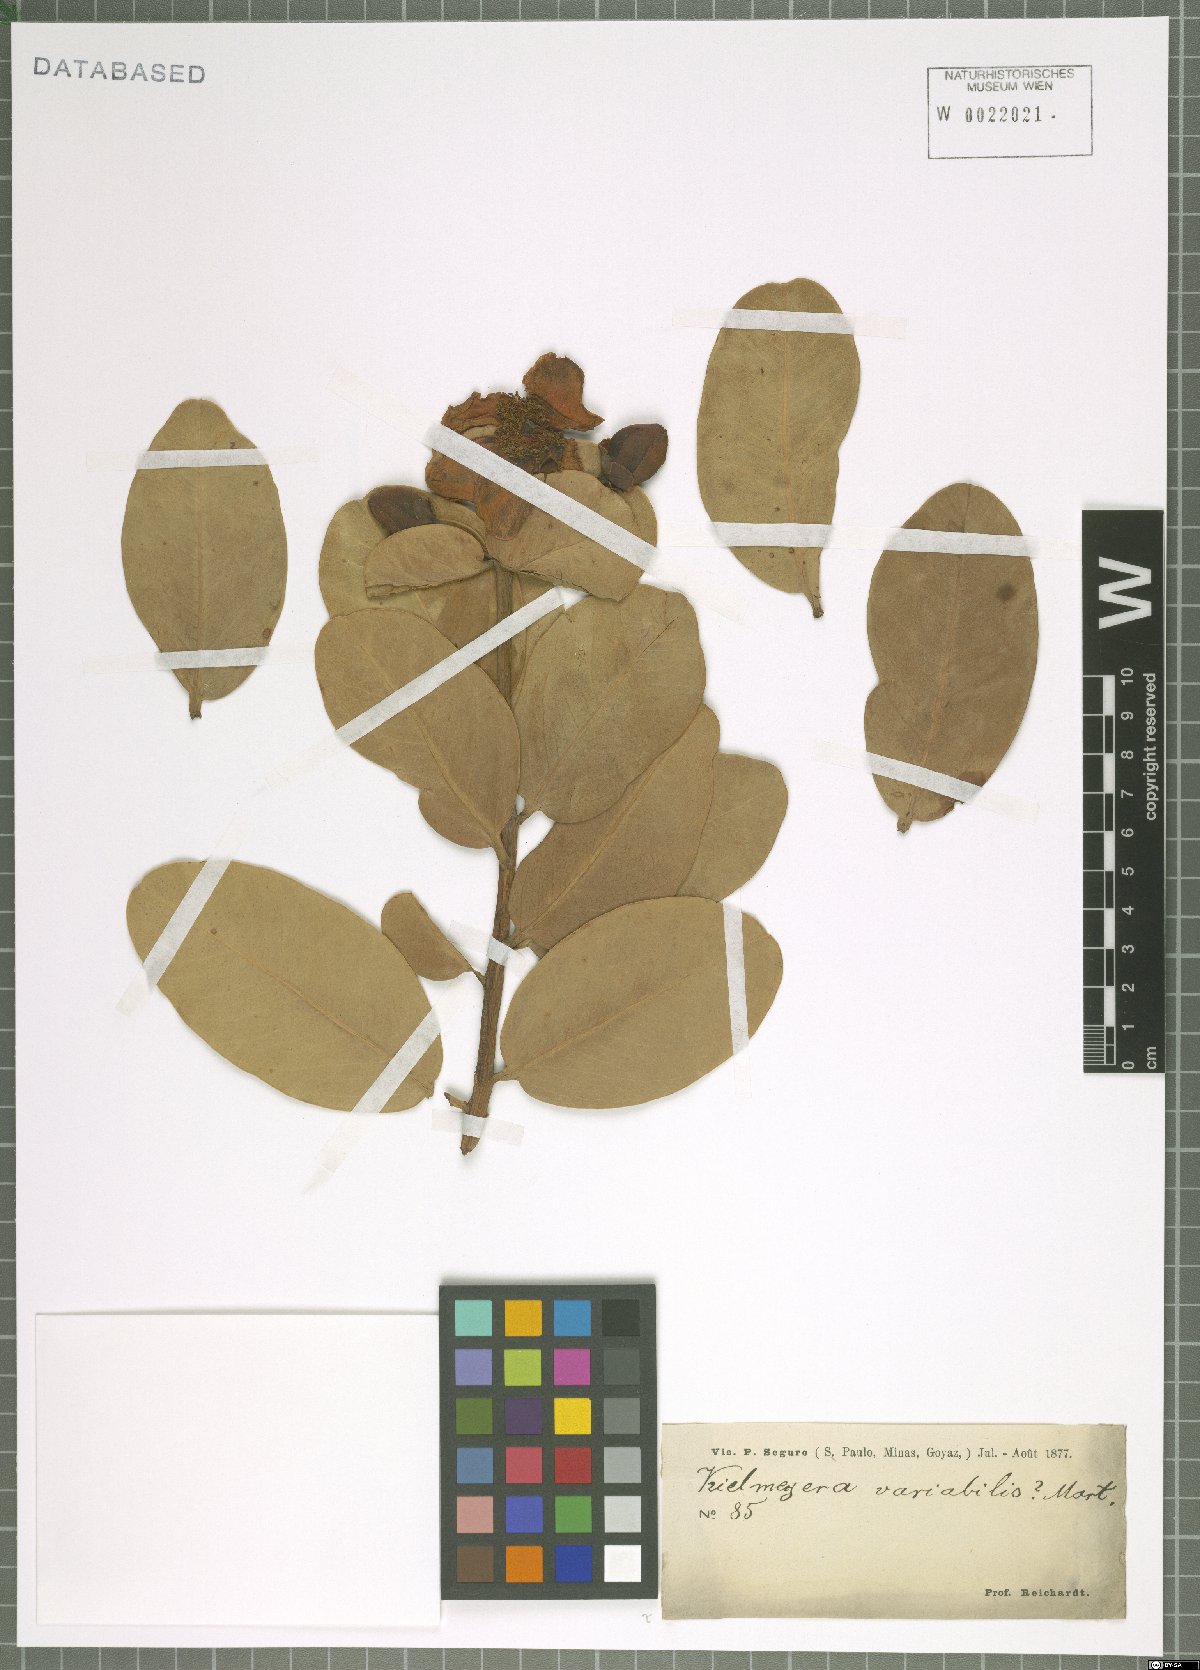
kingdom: Plantae
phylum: Tracheophyta
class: Magnoliopsida
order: Malpighiales
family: Calophyllaceae
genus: Kielmeyera
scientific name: Kielmeyera variabilis
